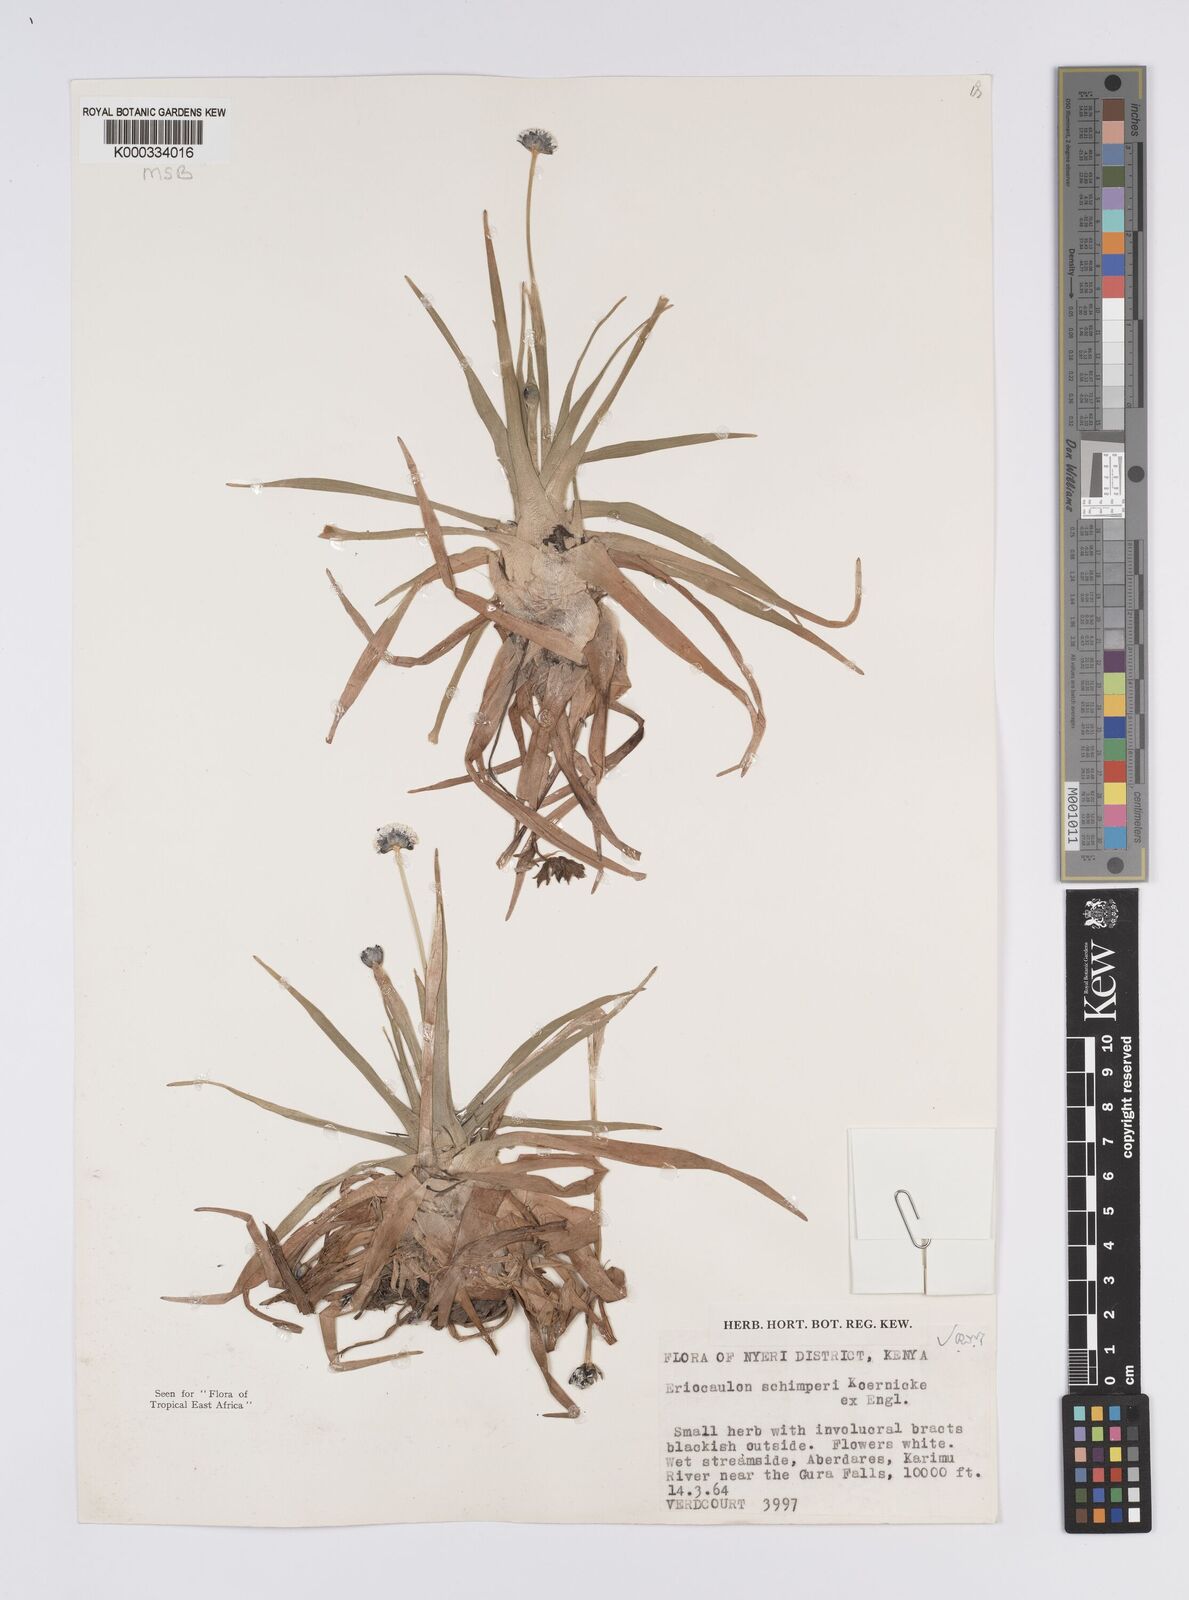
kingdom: Plantae
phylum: Tracheophyta
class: Liliopsida
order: Poales
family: Eriocaulaceae
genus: Eriocaulon
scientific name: Eriocaulon
